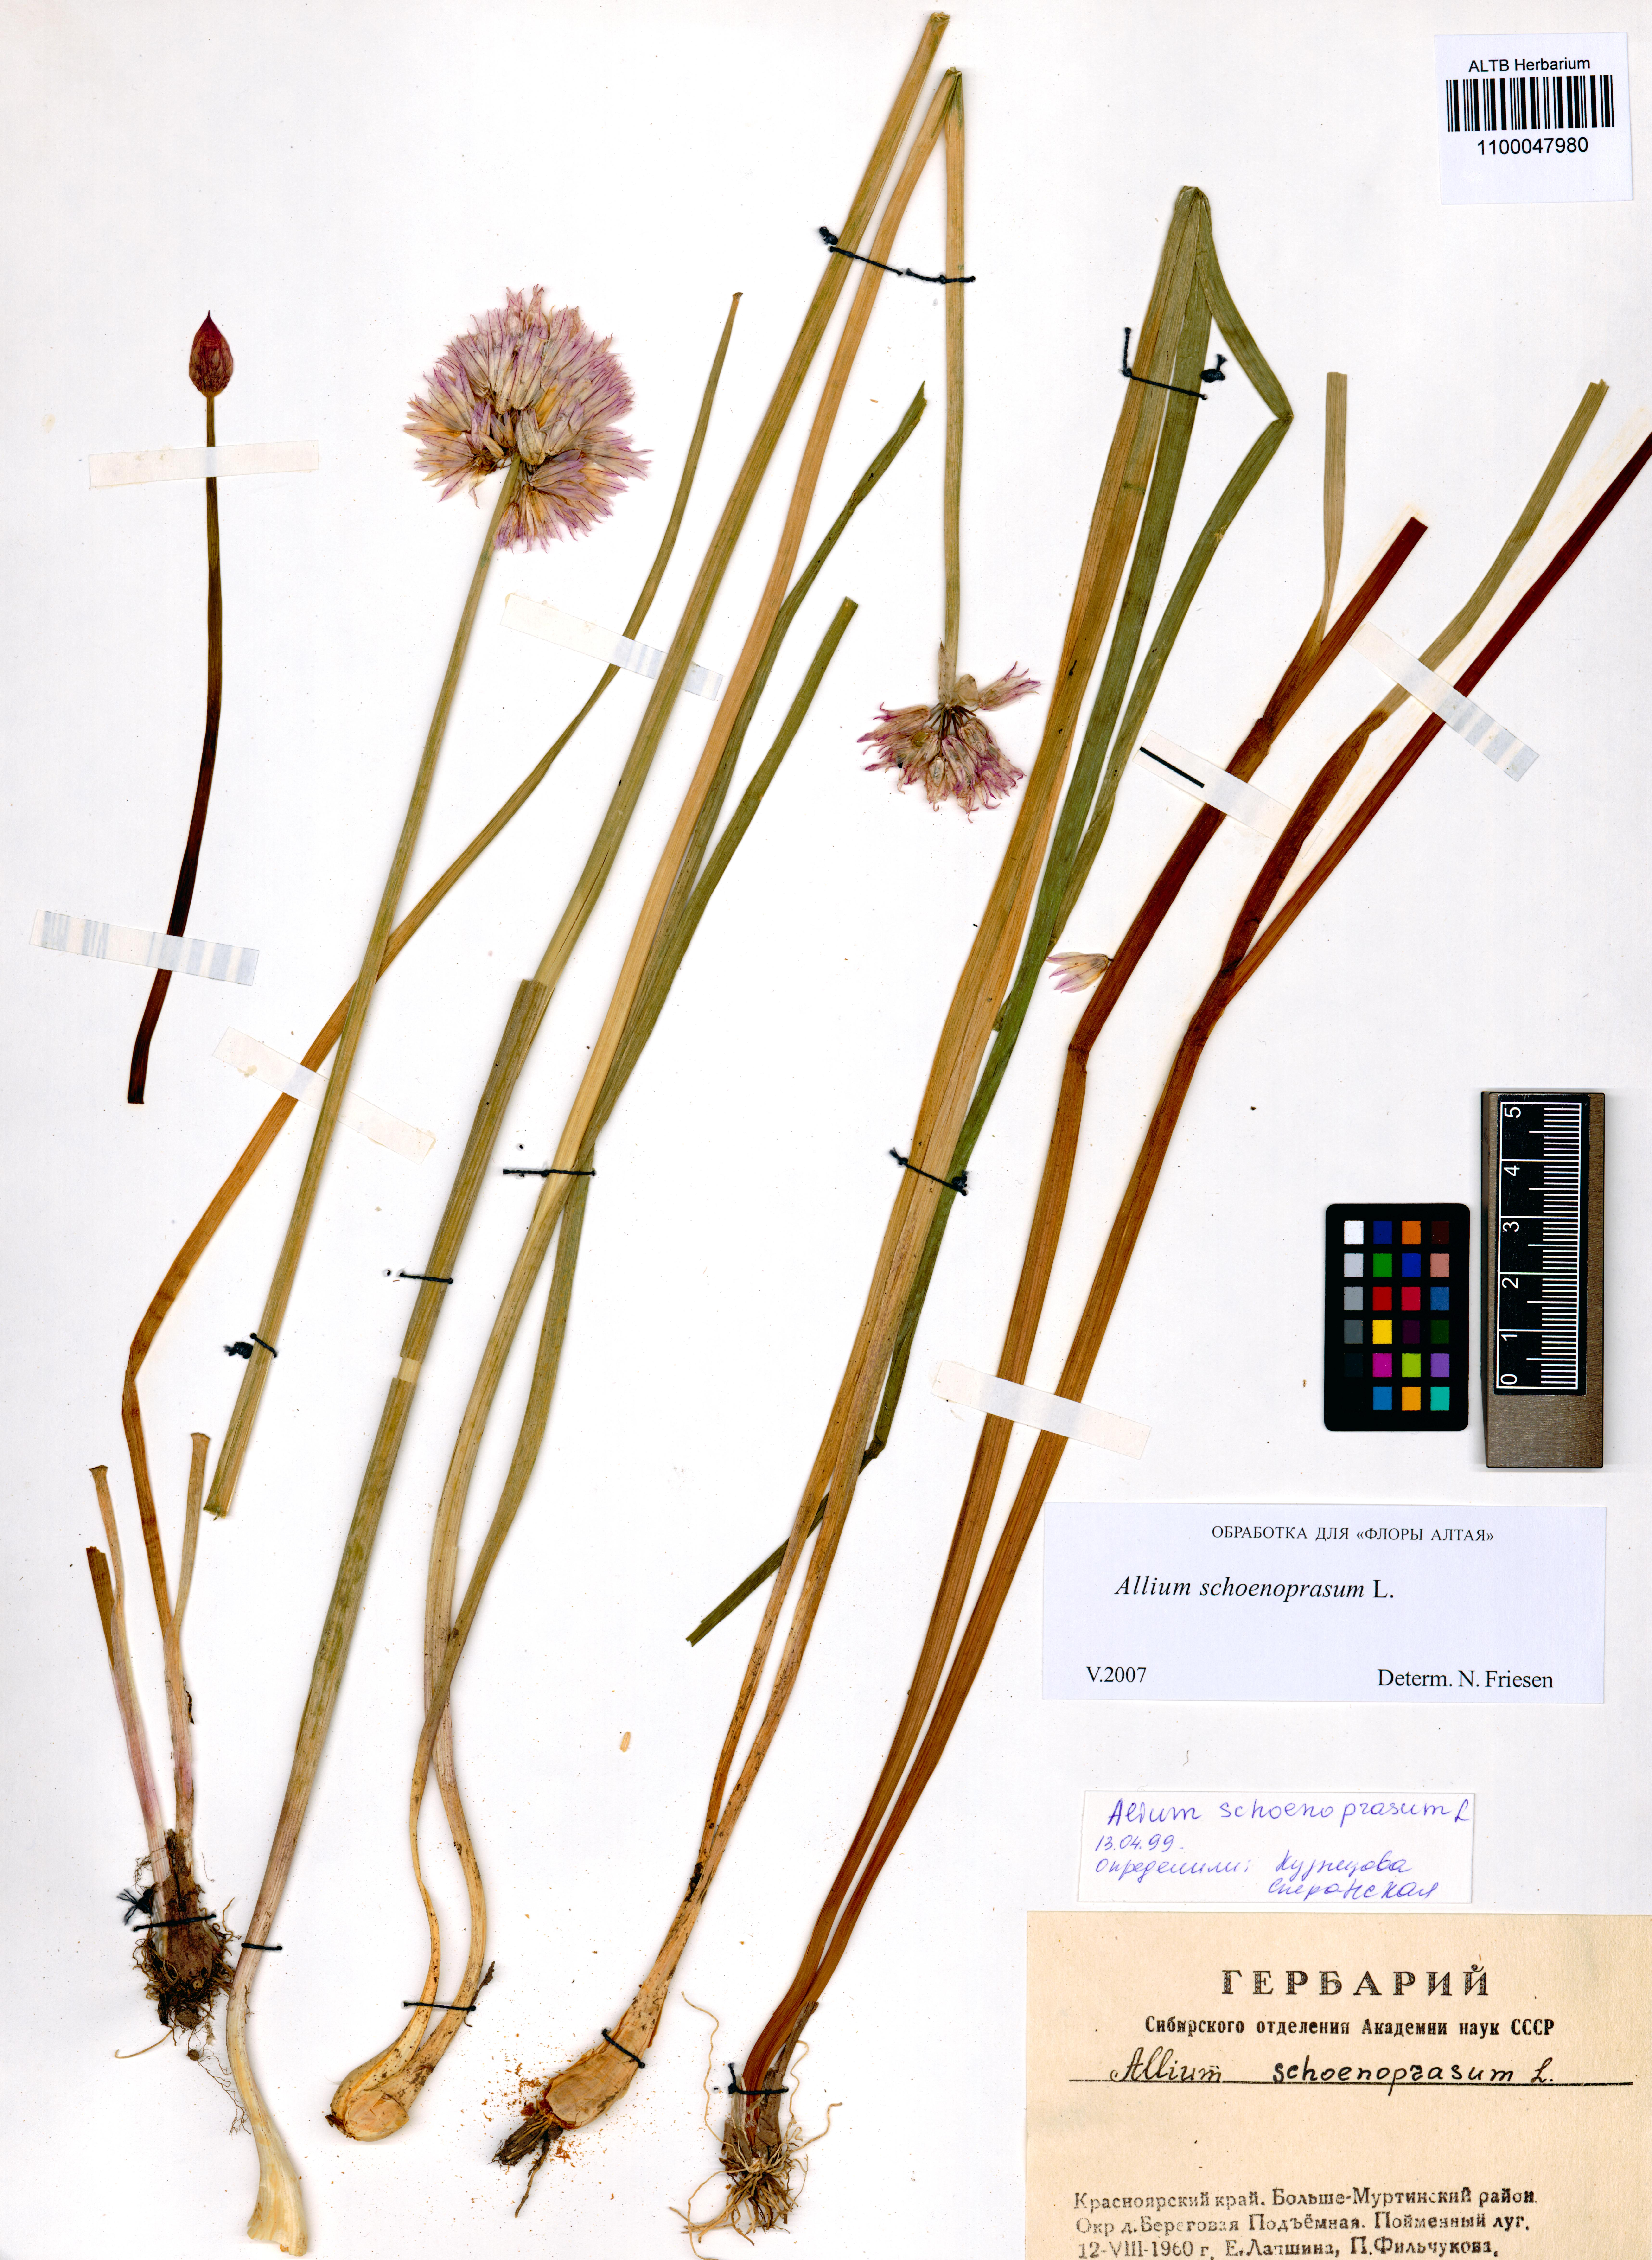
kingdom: Plantae
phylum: Tracheophyta
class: Liliopsida
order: Asparagales
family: Amaryllidaceae
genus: Allium
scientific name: Allium schoenoprasum
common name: Chives
